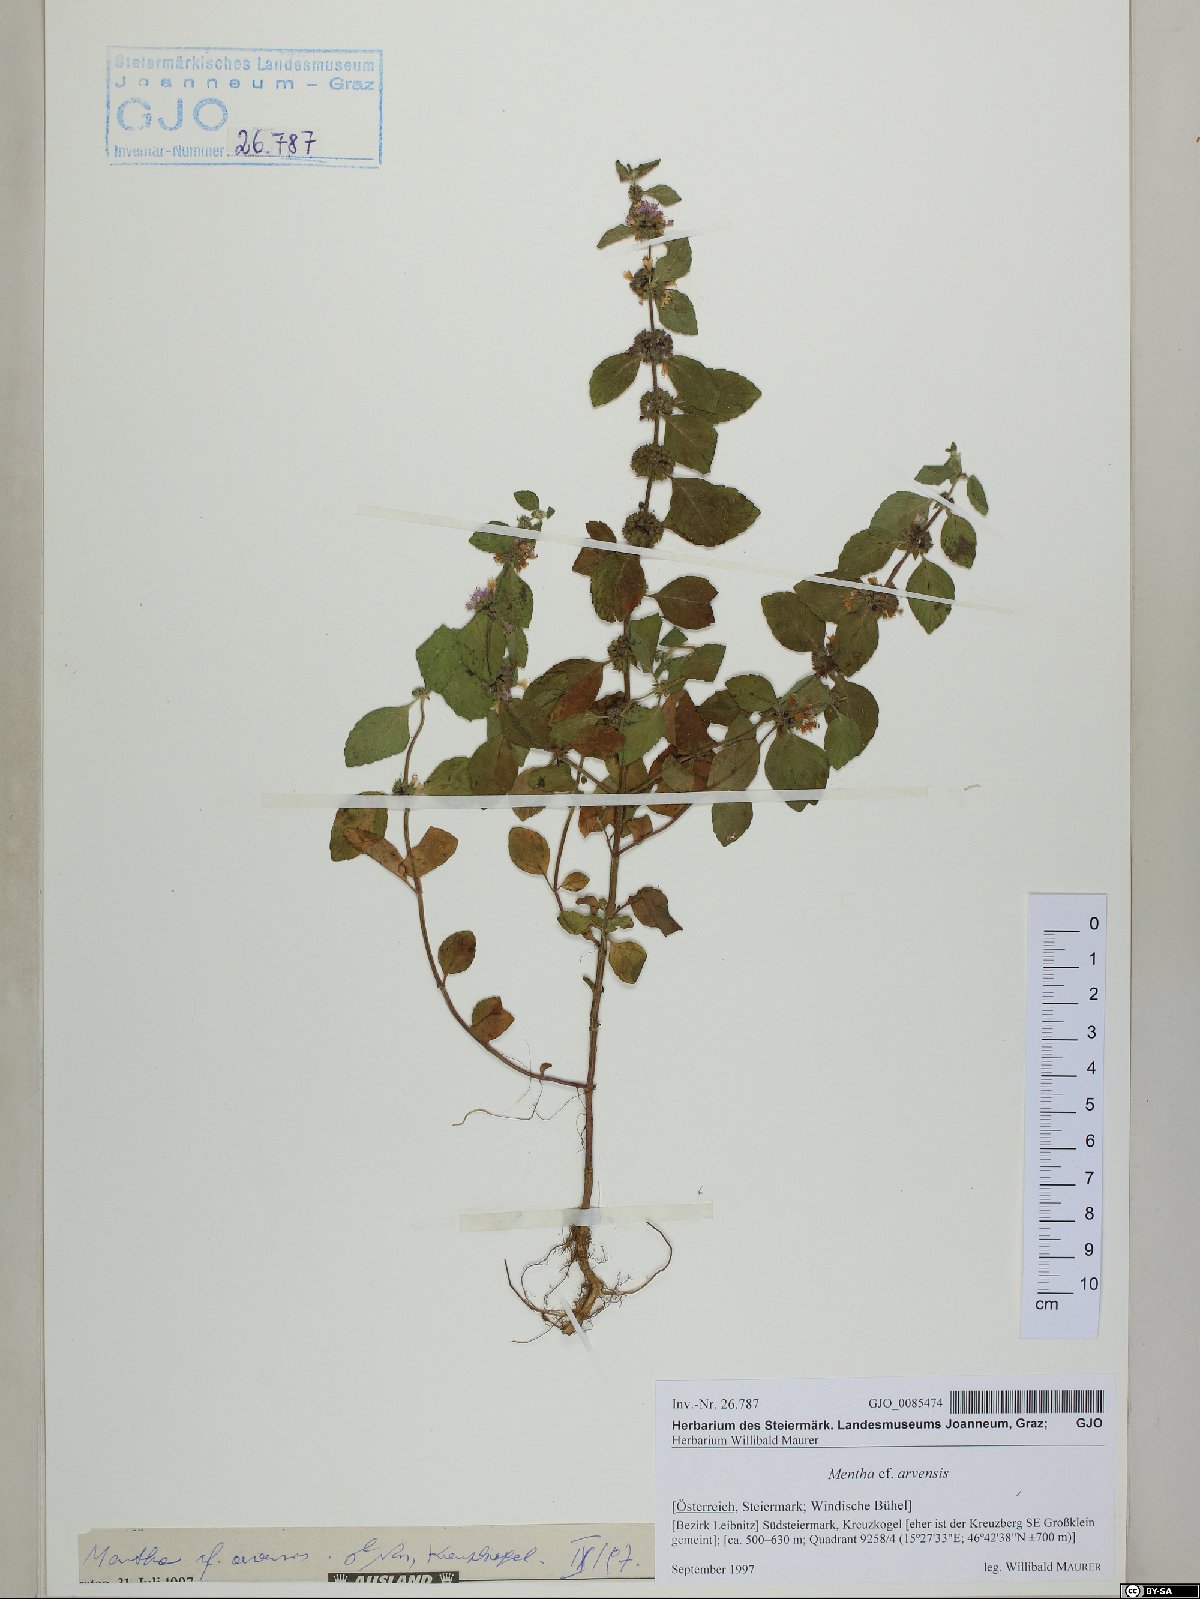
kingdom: Plantae
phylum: Tracheophyta
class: Magnoliopsida
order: Lamiales
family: Lamiaceae
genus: Mentha
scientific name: Mentha arvensis
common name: Corn mint
